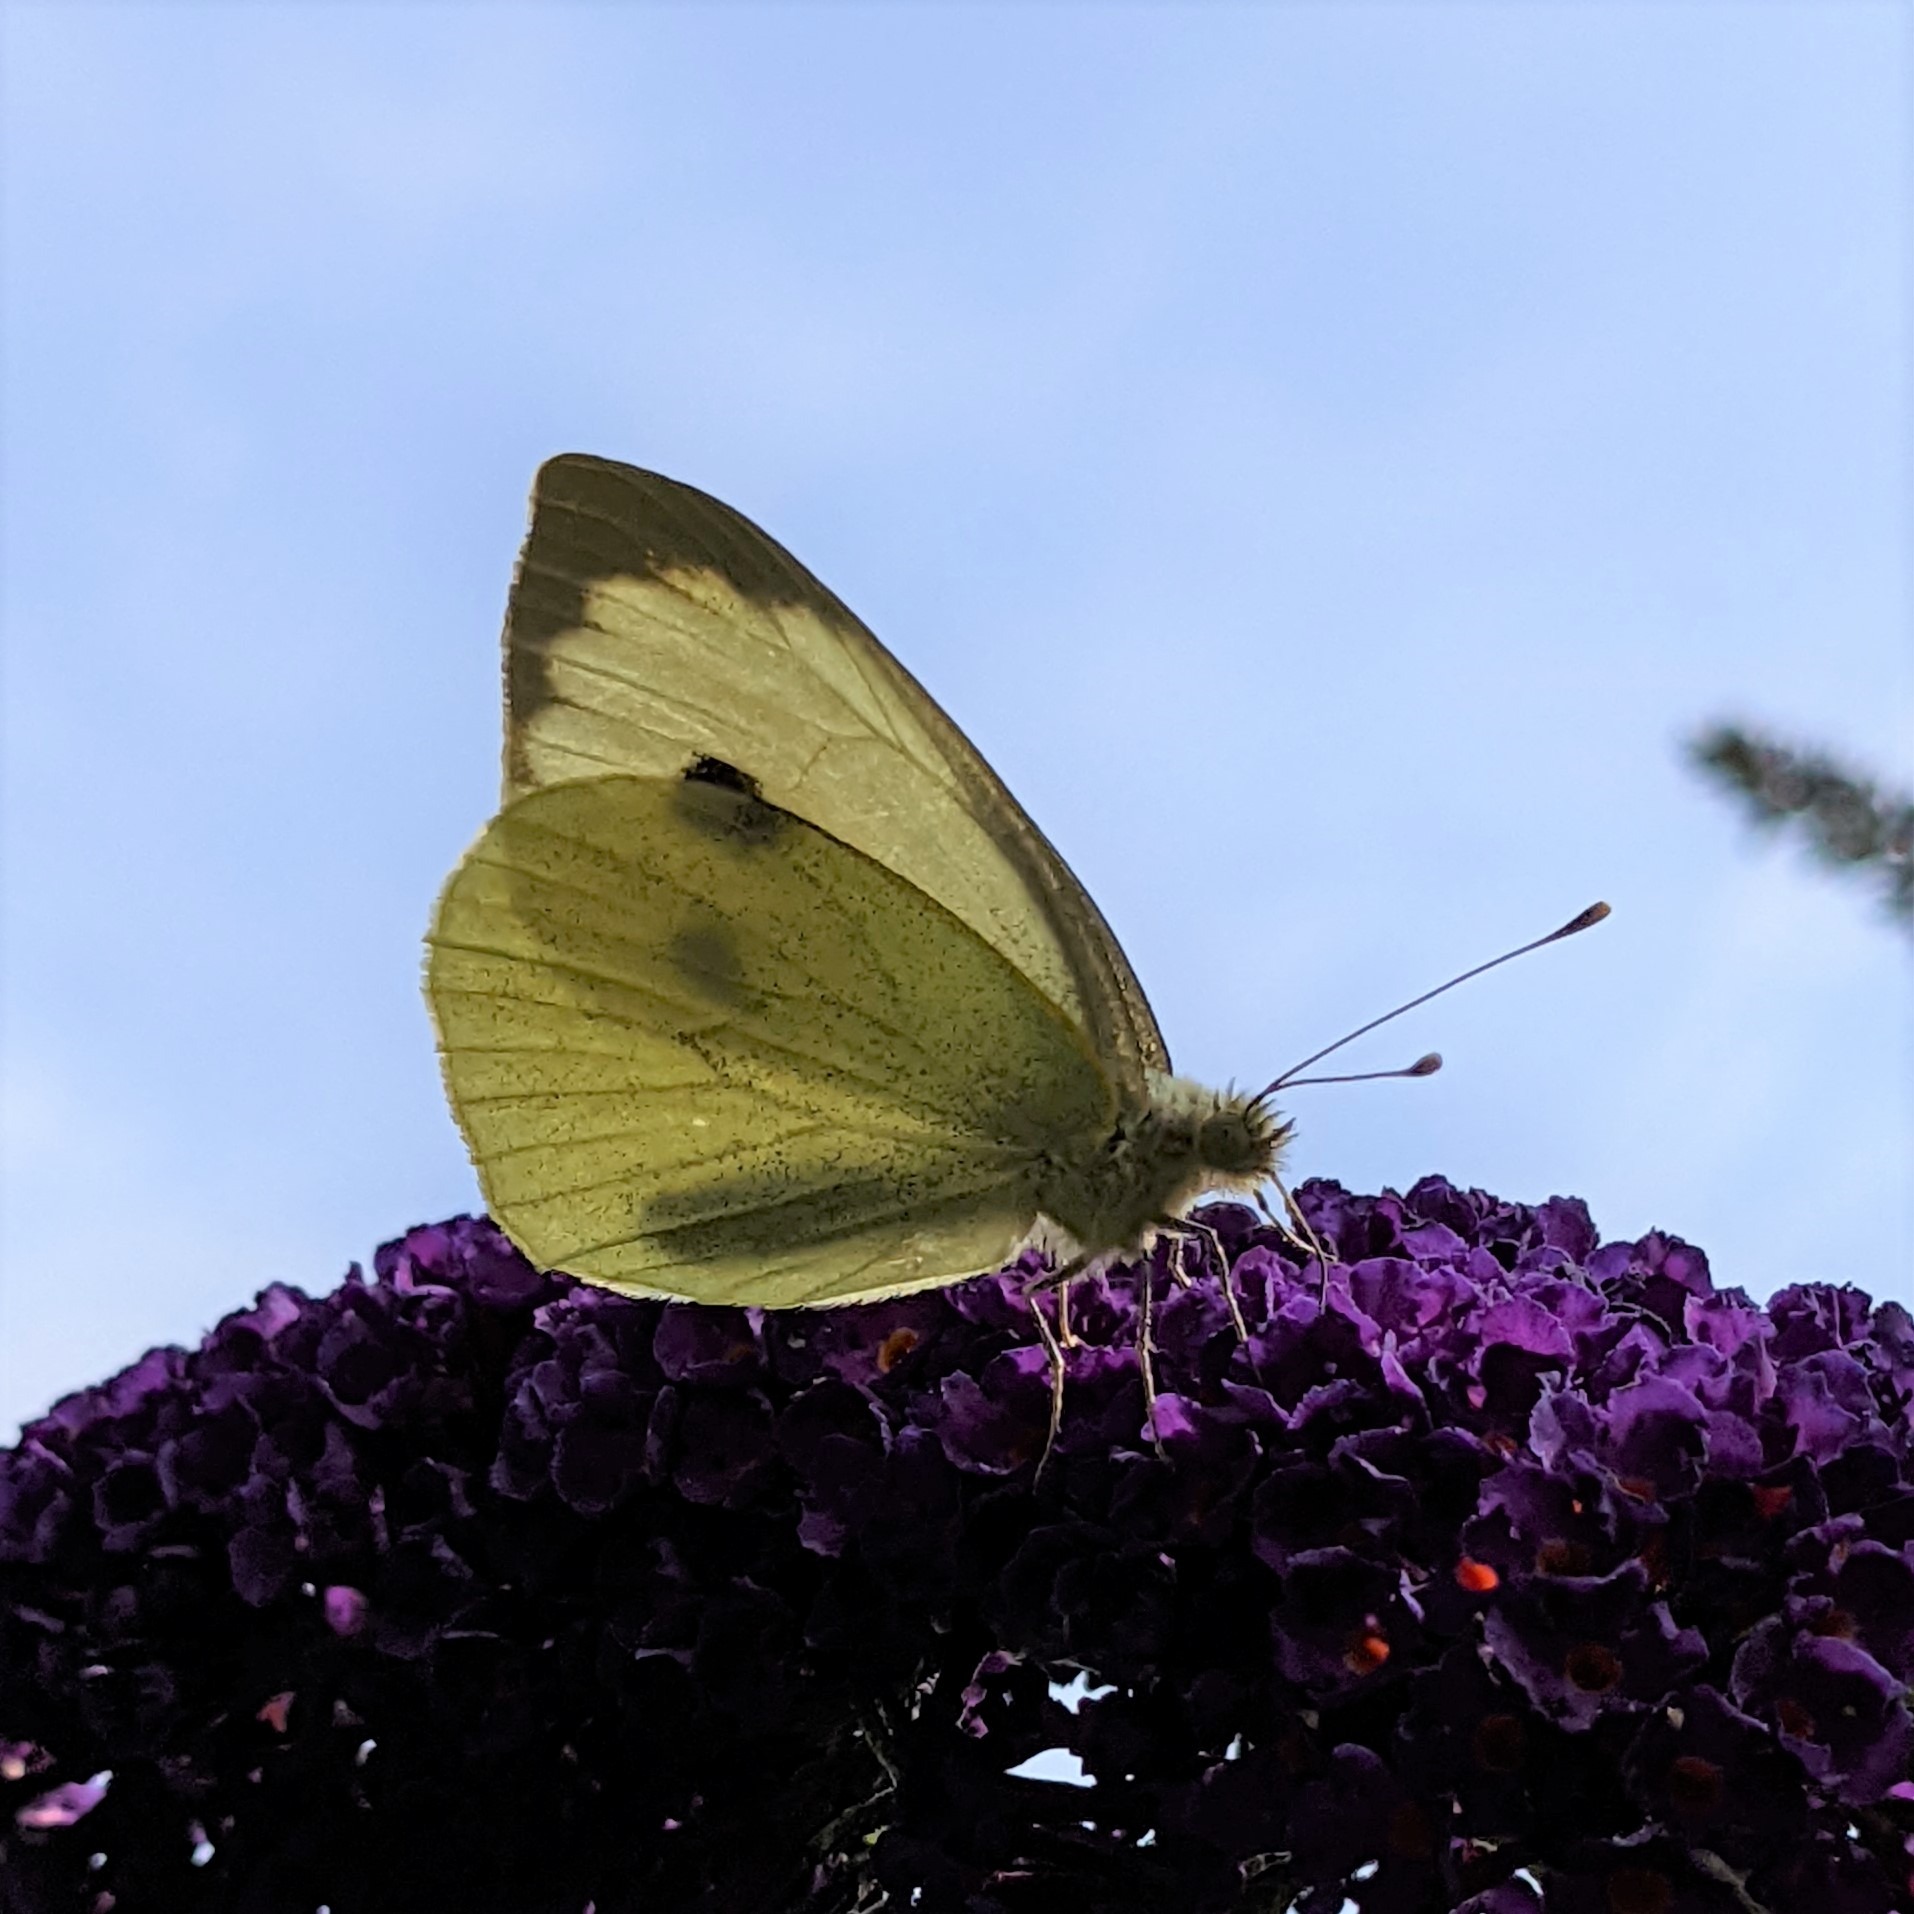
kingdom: Animalia
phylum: Arthropoda
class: Insecta
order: Lepidoptera
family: Pieridae
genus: Pieris
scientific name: Pieris brassicae
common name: Stor kålsommerfugl
